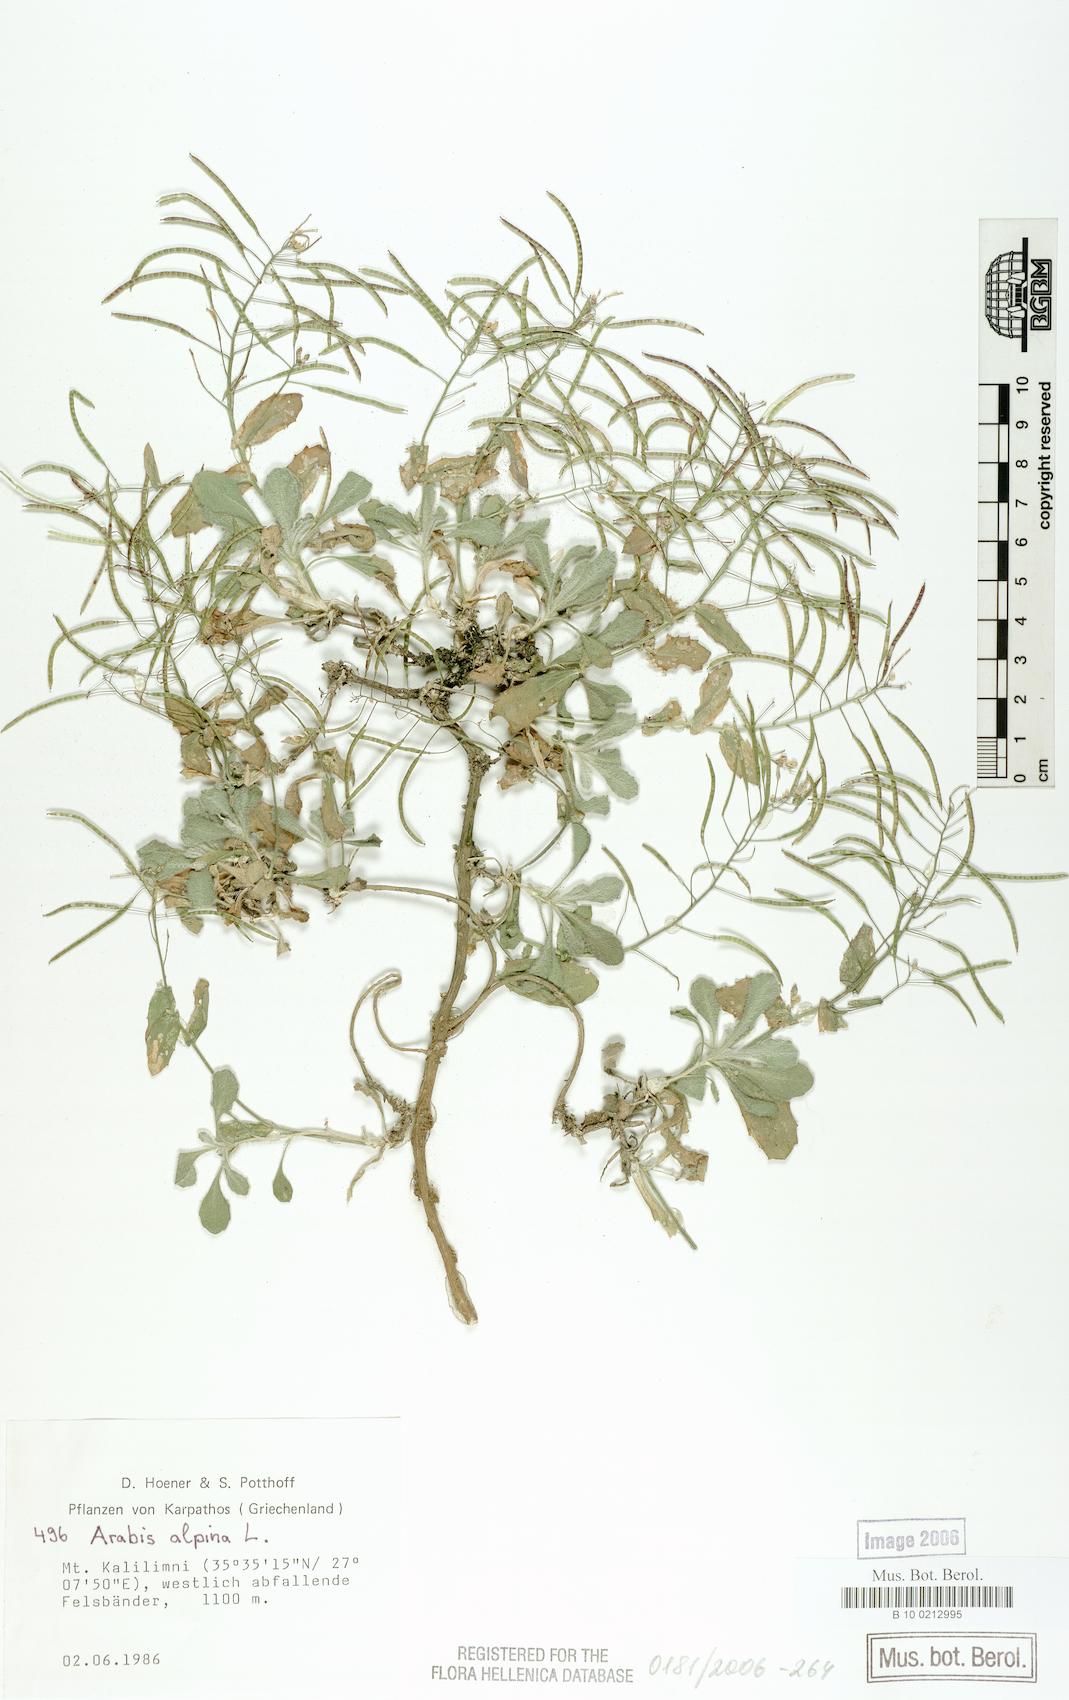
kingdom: Plantae
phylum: Tracheophyta
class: Magnoliopsida
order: Brassicales
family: Brassicaceae
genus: Arabis
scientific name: Arabis alpina
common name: Alpine rock-cress
